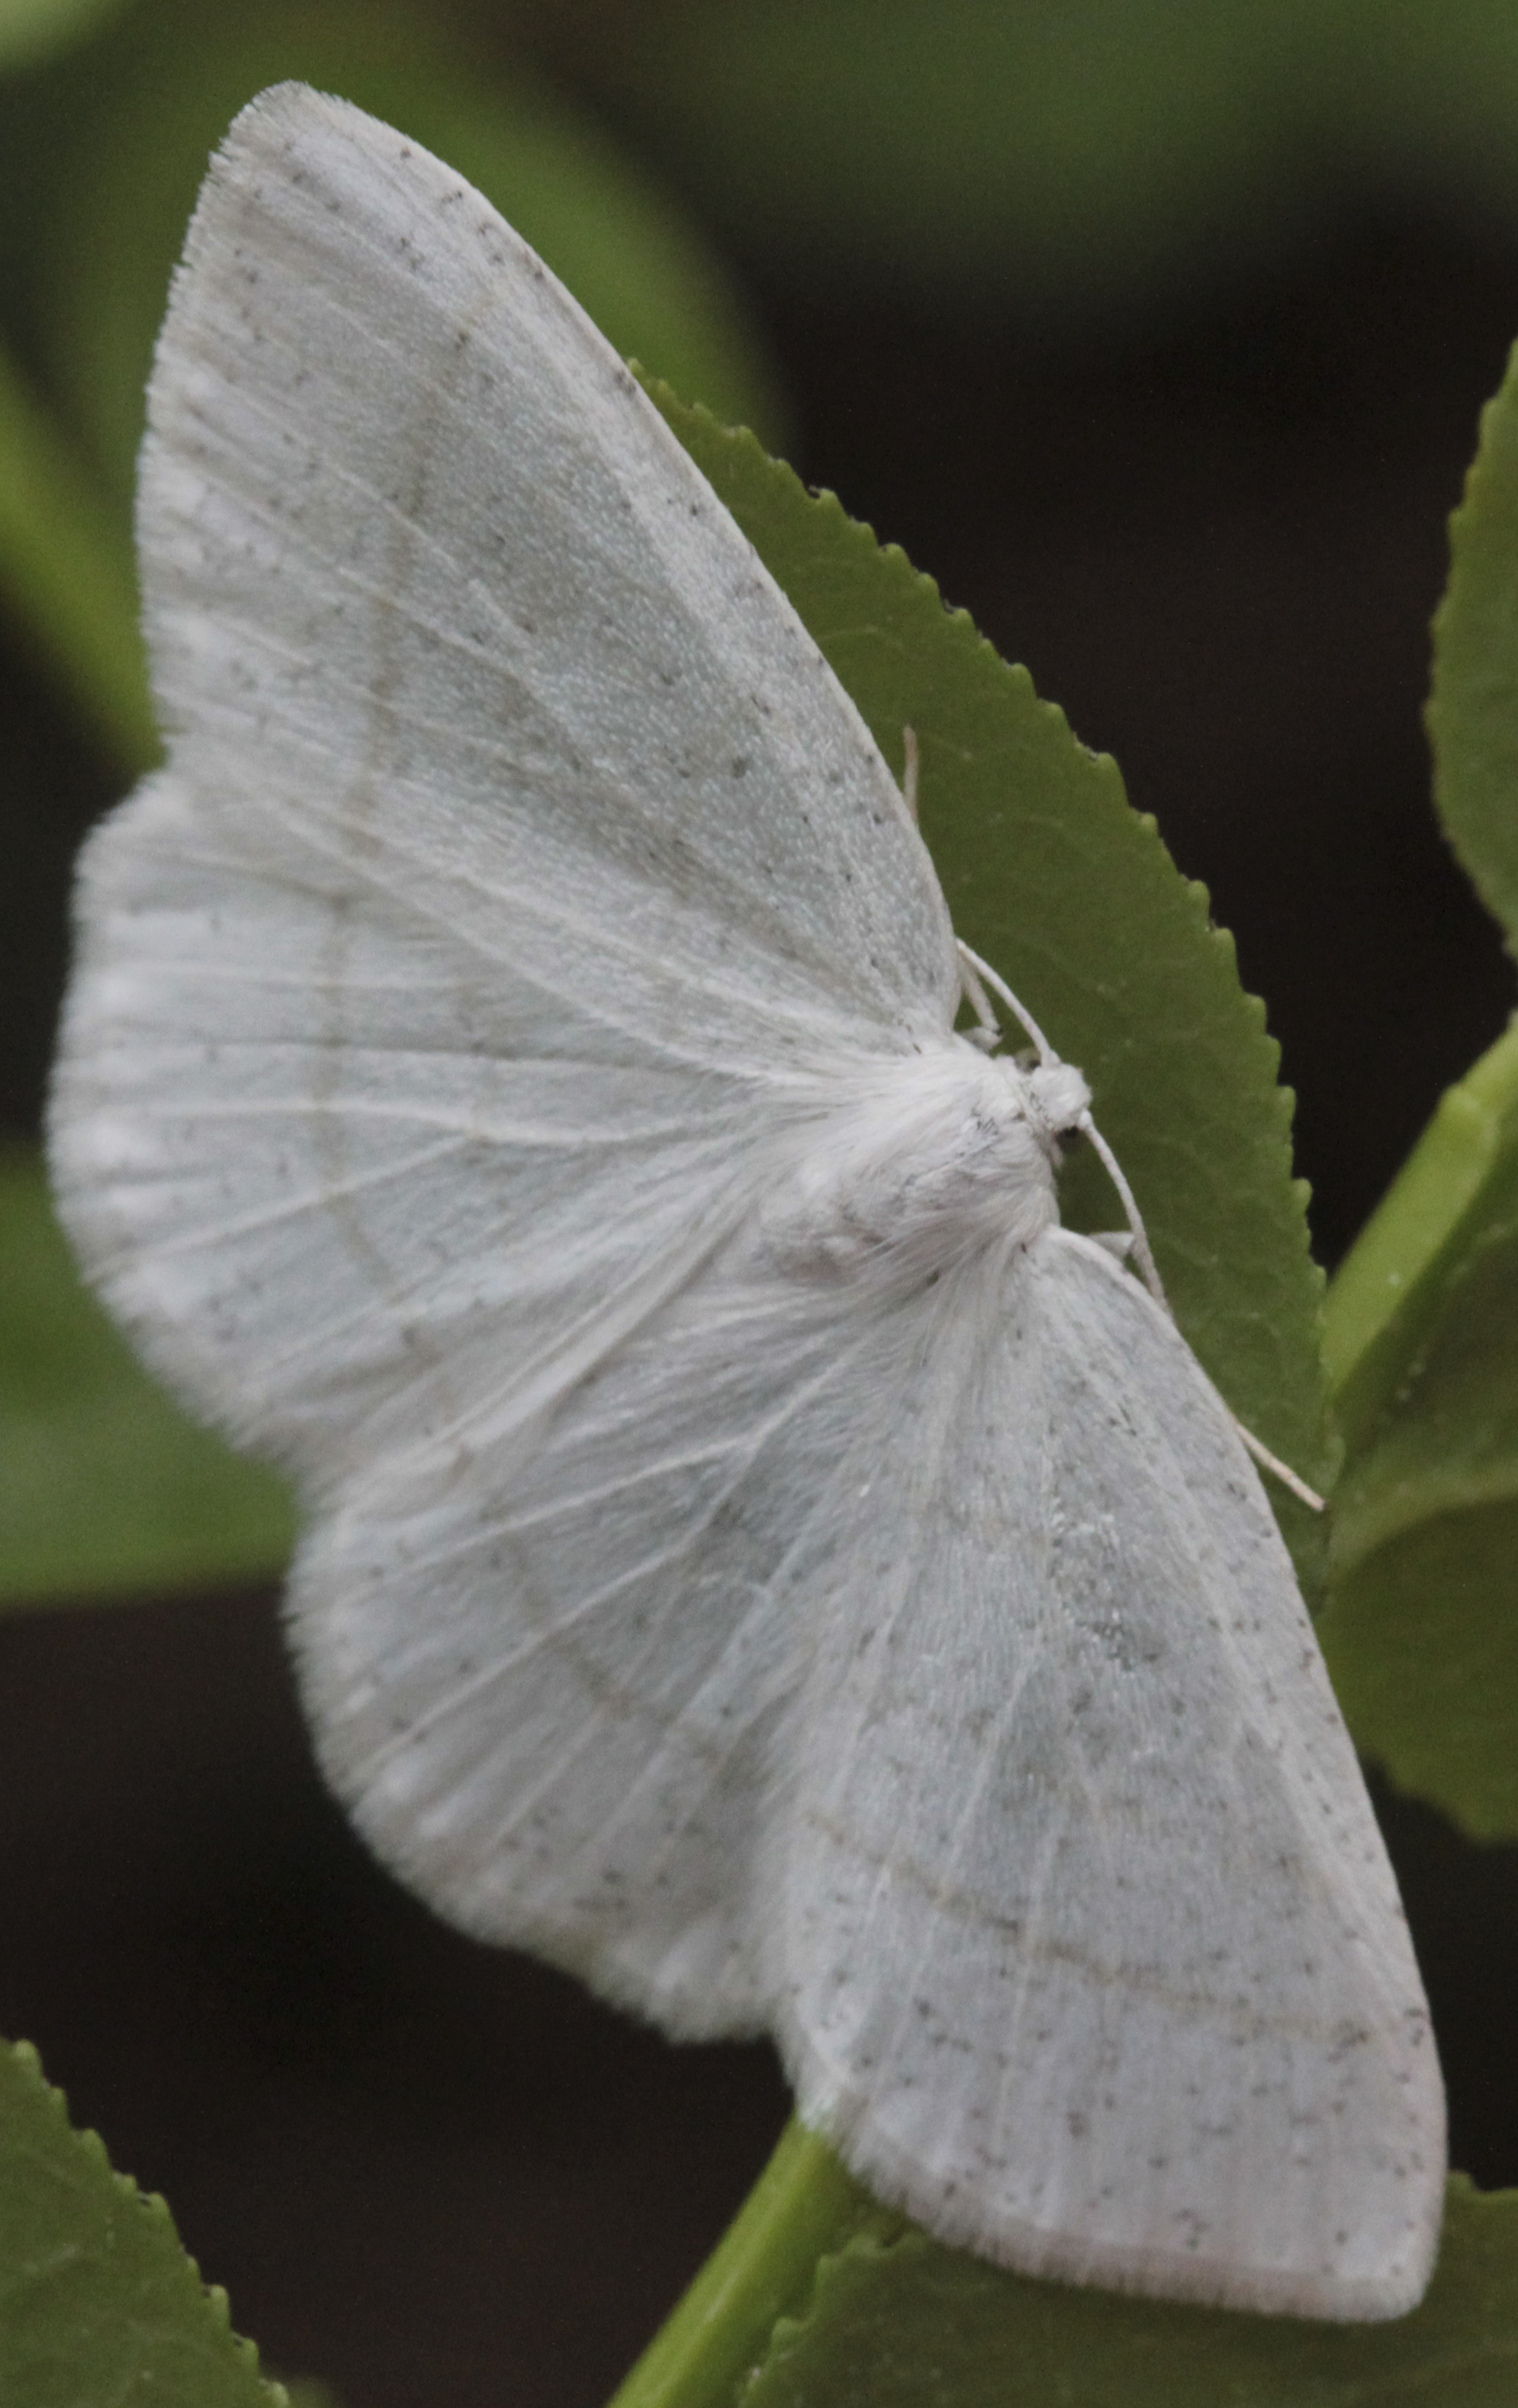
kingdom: Animalia
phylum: Arthropoda
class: Insecta
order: Lepidoptera
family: Geometridae
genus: Cabera
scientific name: Cabera pusaria
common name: Common white wave
